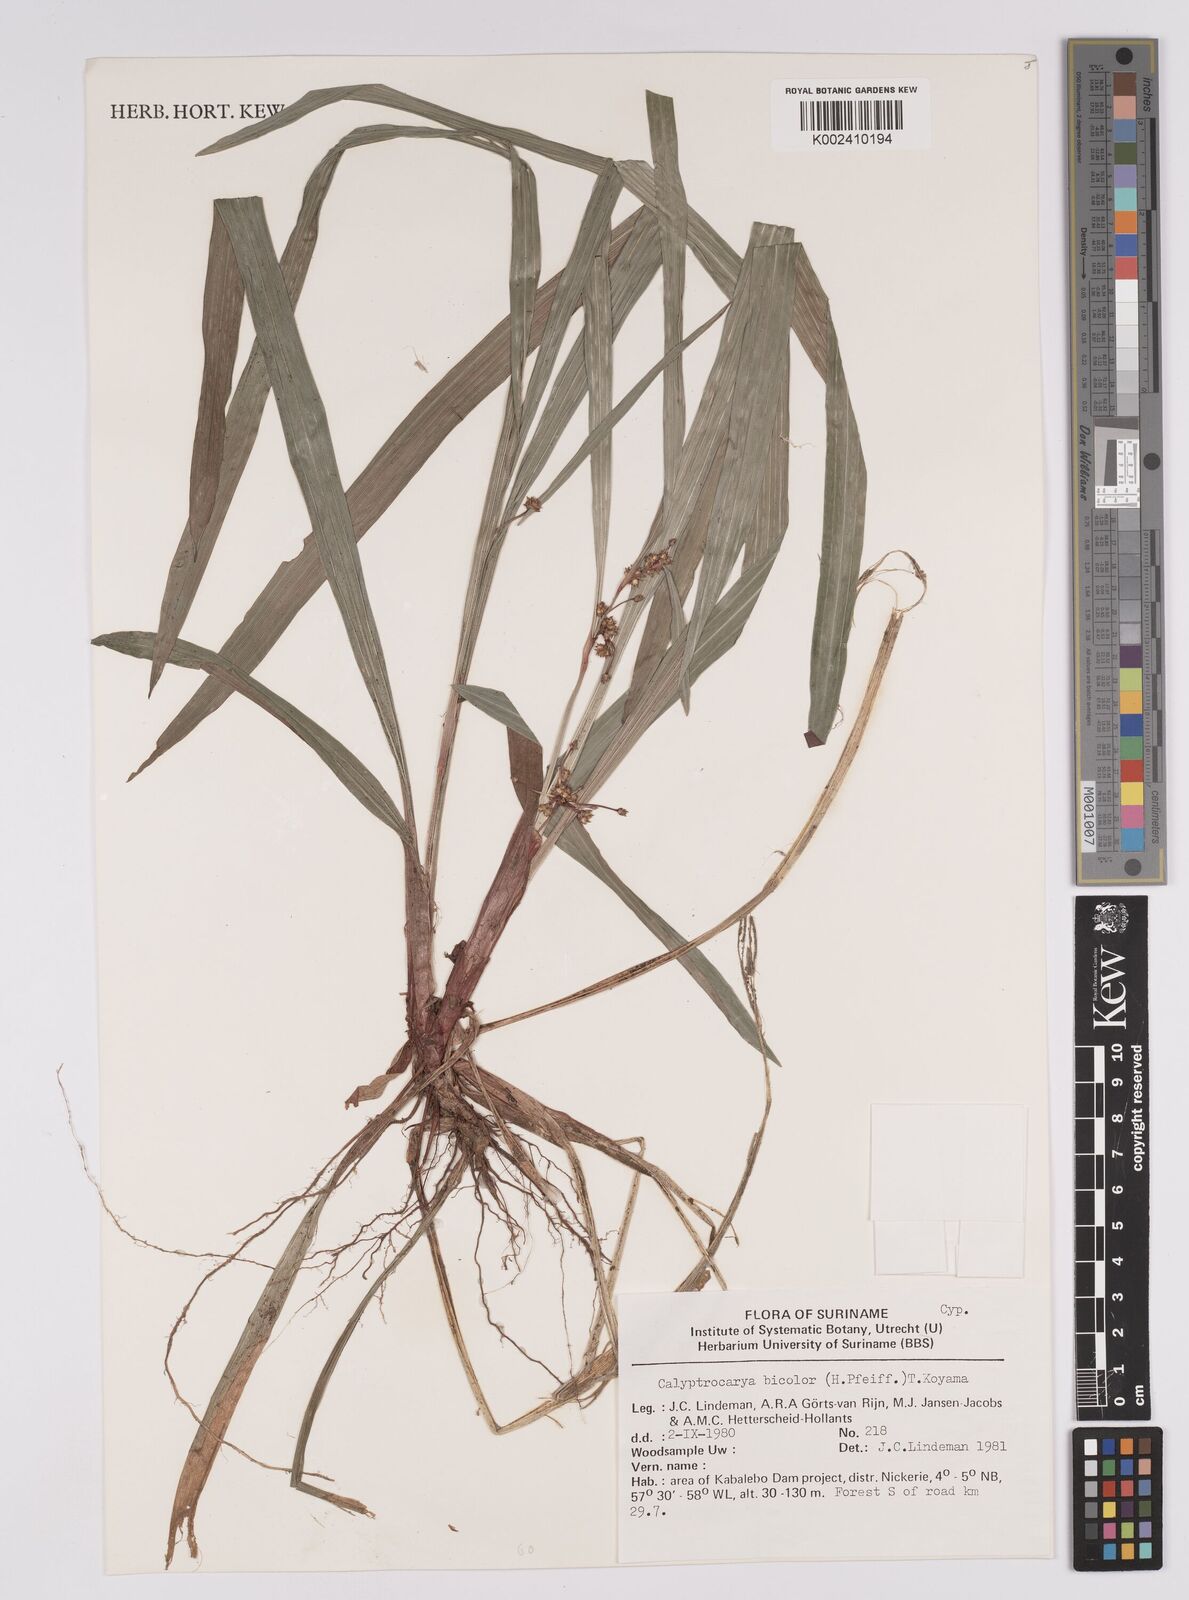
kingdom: Plantae
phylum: Tracheophyta
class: Liliopsida
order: Poales
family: Cyperaceae
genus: Calyptrocarya
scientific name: Calyptrocarya bicolor
